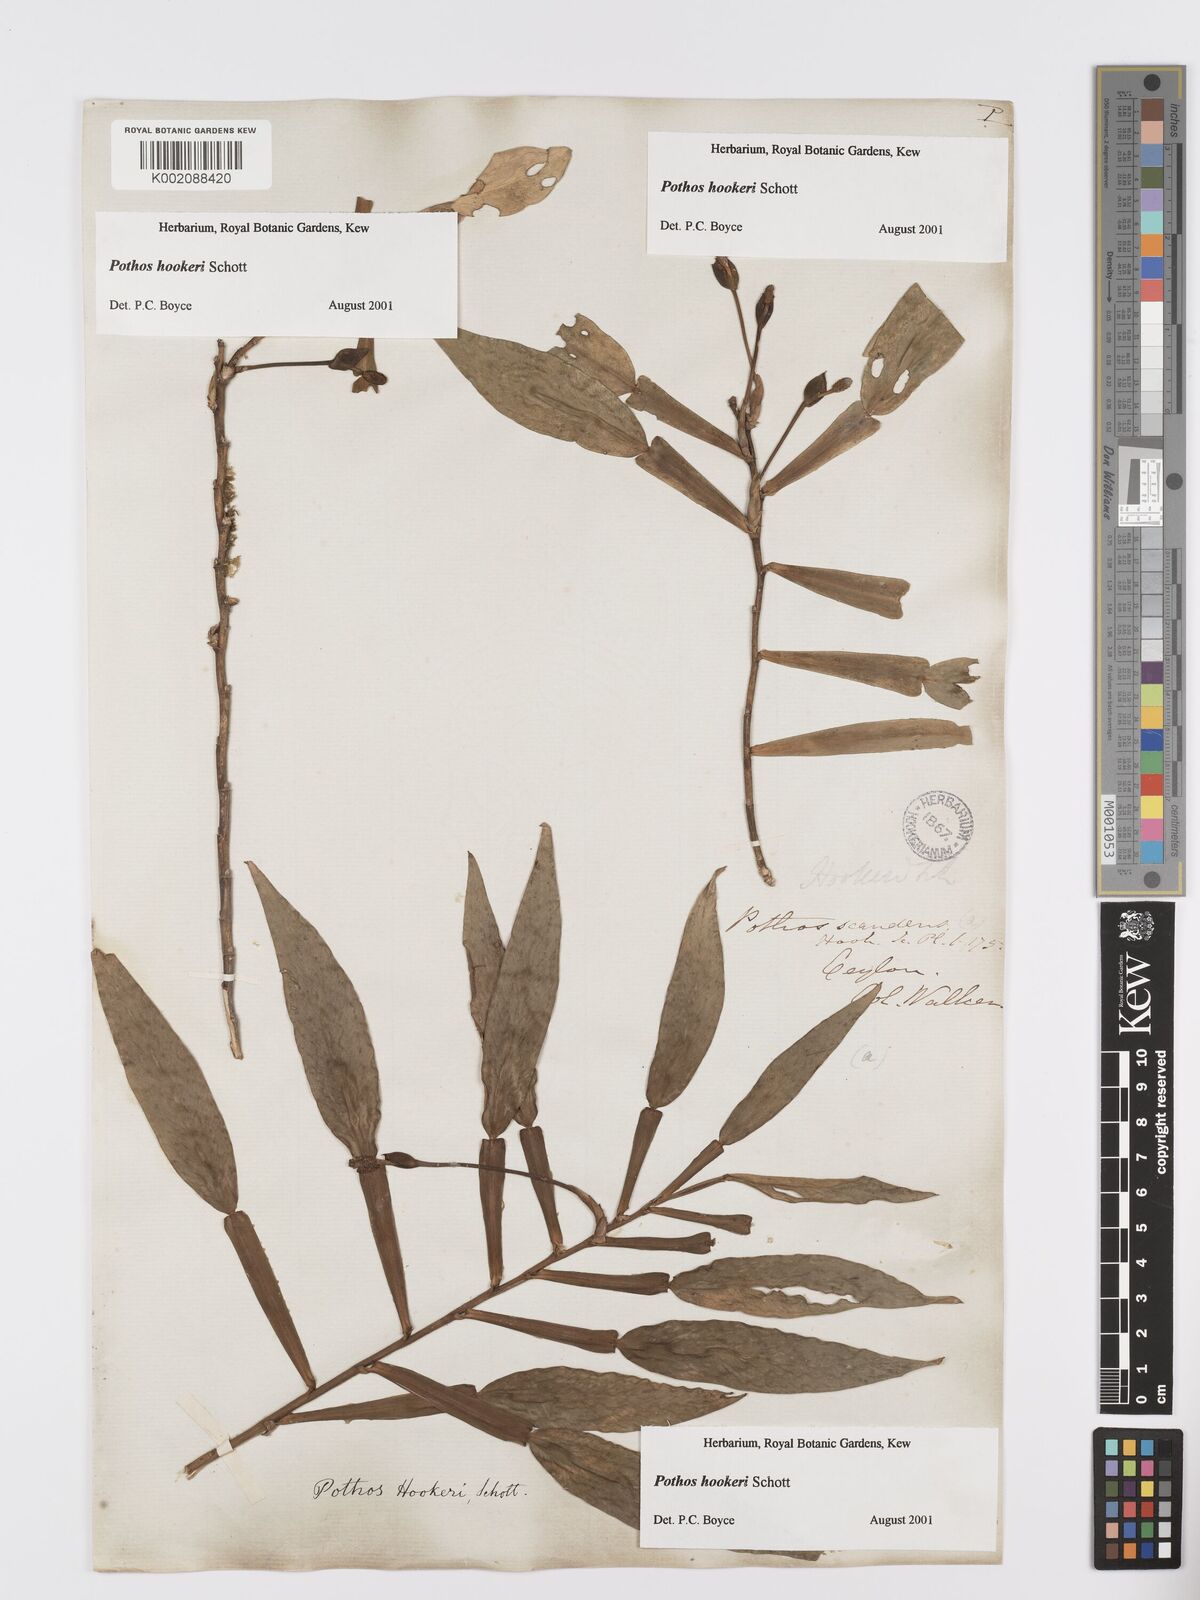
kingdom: Plantae
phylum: Tracheophyta
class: Liliopsida
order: Alismatales
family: Araceae
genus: Pothos
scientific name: Pothos hookeri
